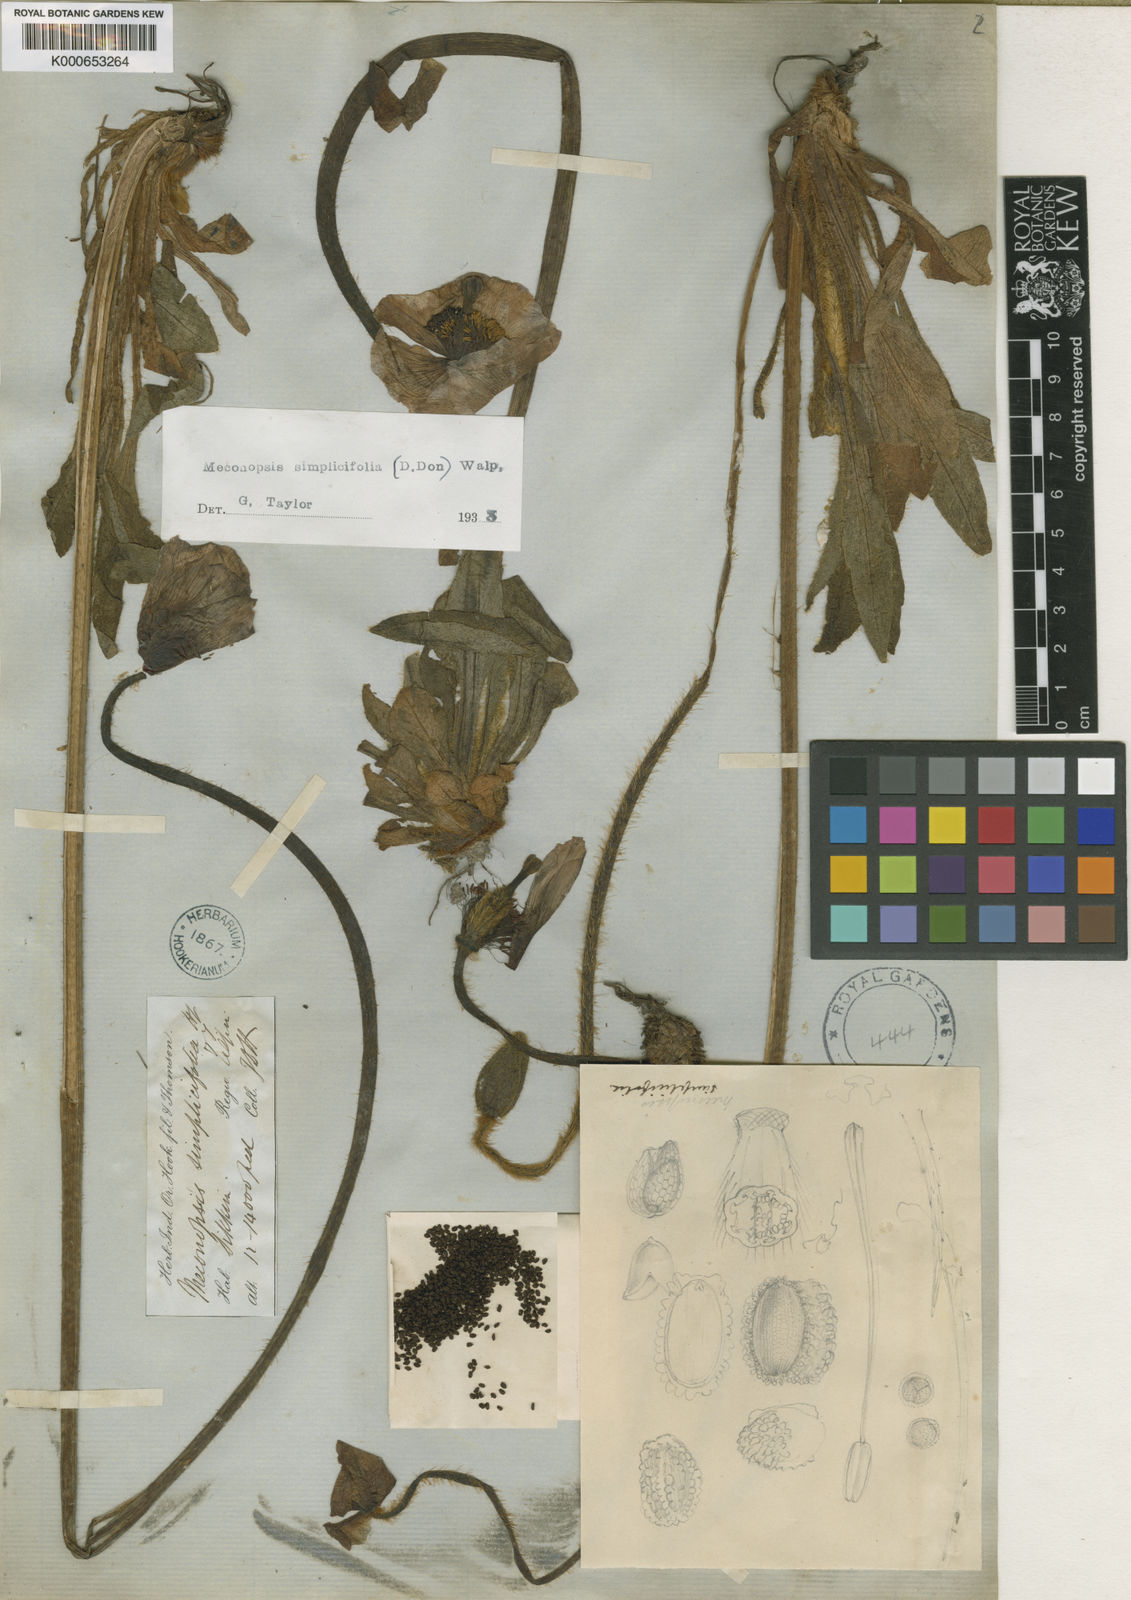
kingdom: Plantae
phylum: Tracheophyta
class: Magnoliopsida
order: Ranunculales
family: Papaveraceae
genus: Meconopsis
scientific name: Meconopsis
